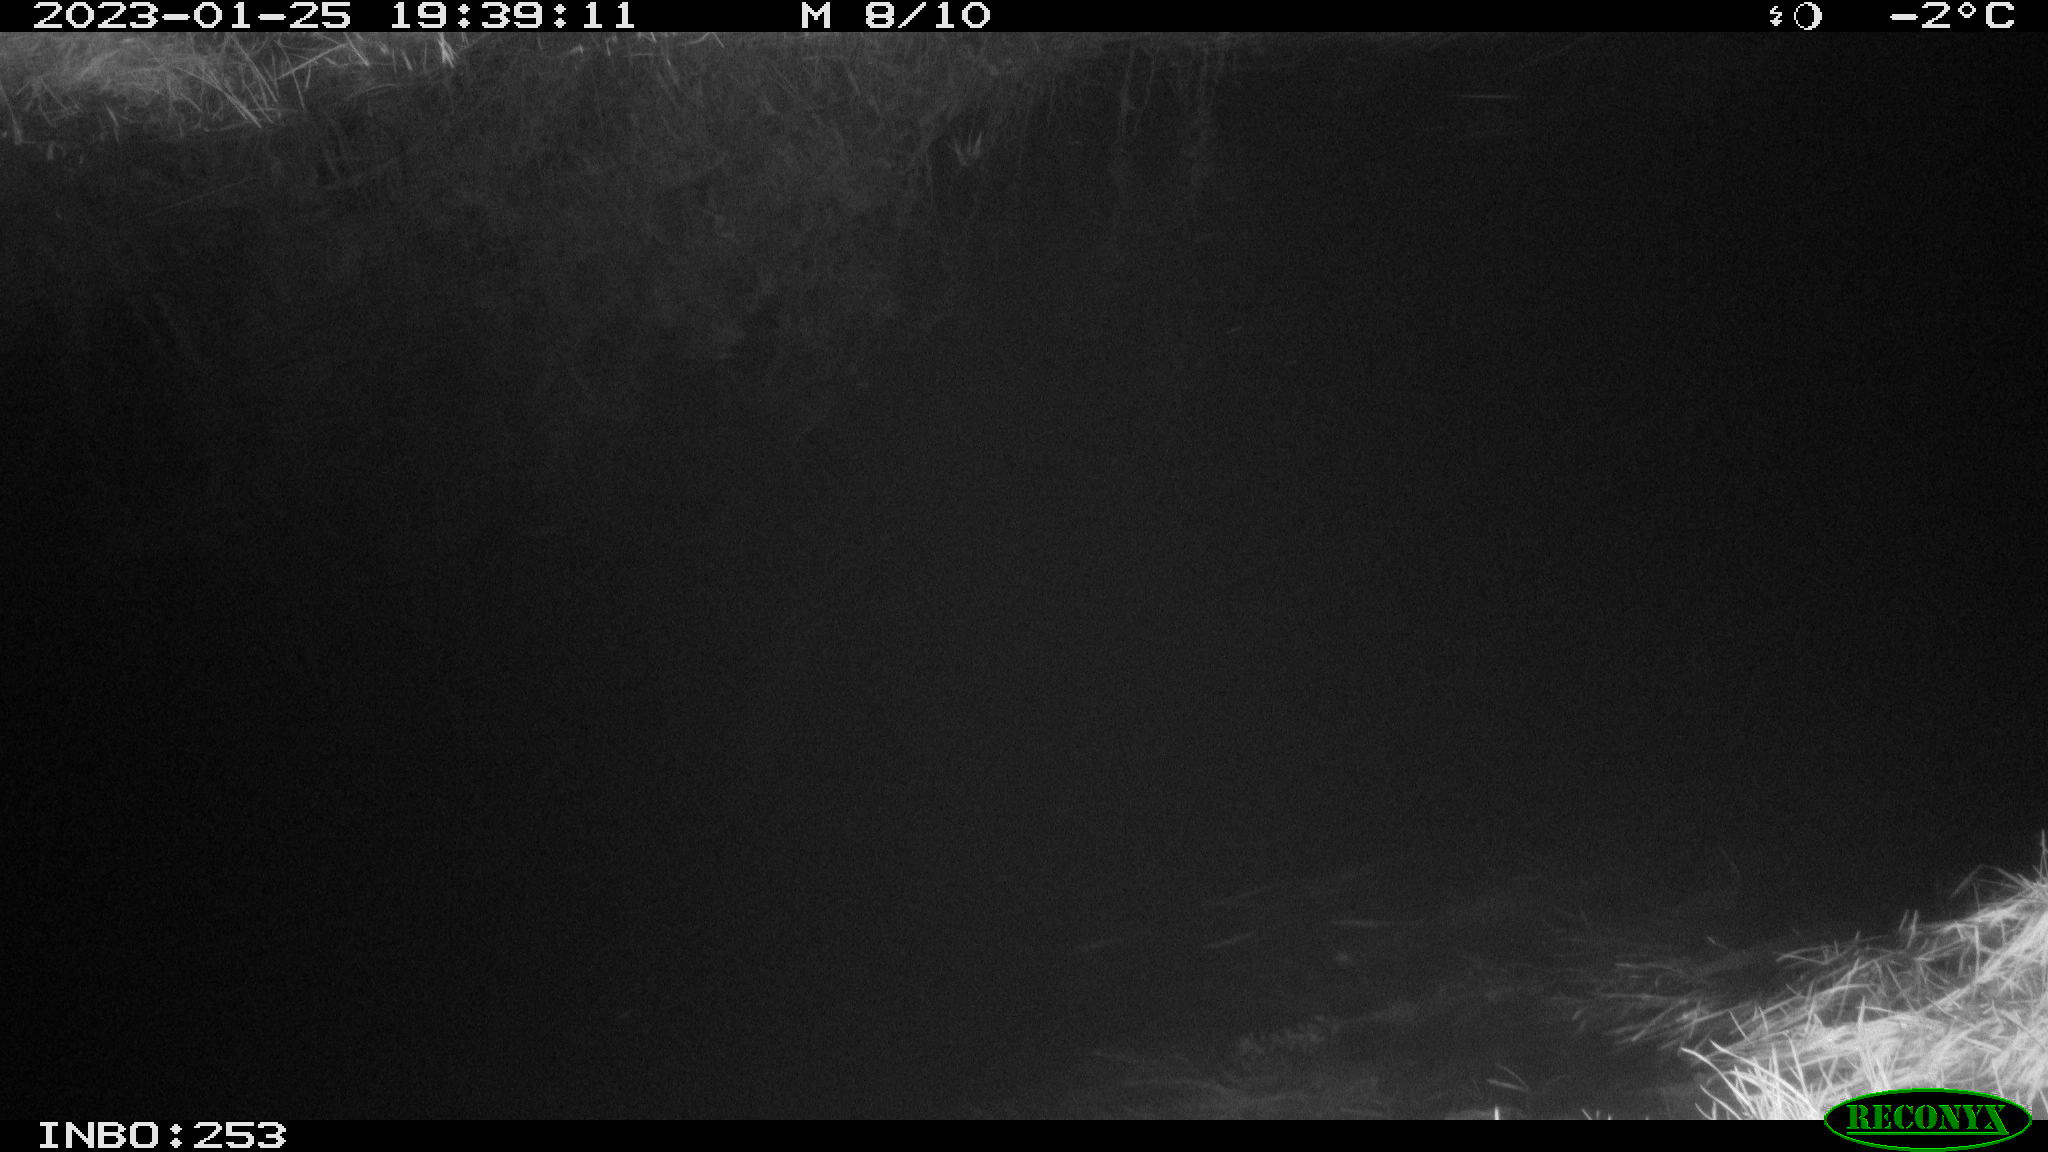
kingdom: Animalia
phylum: Chordata
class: Aves
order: Anseriformes
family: Anatidae
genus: Anas
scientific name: Anas
